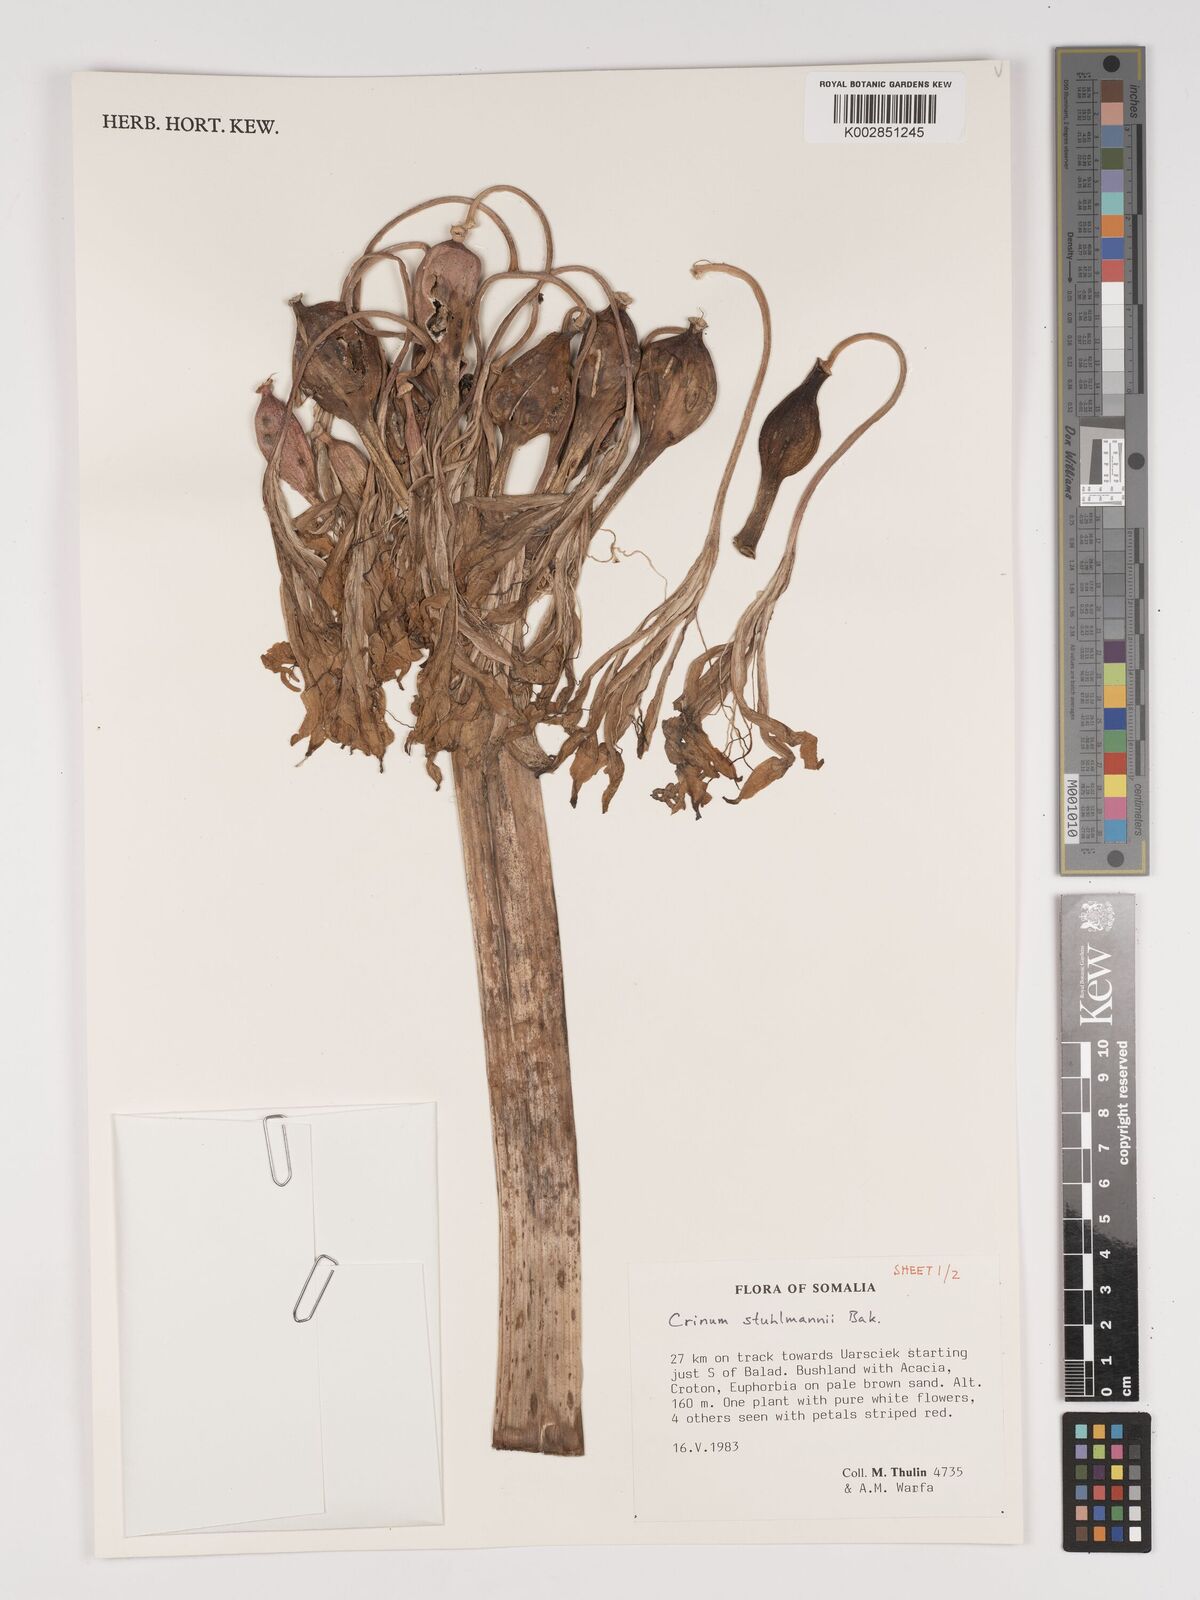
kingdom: Plantae
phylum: Tracheophyta
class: Liliopsida
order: Asparagales
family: Amaryllidaceae
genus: Crinum
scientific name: Crinum stuhlmannii
